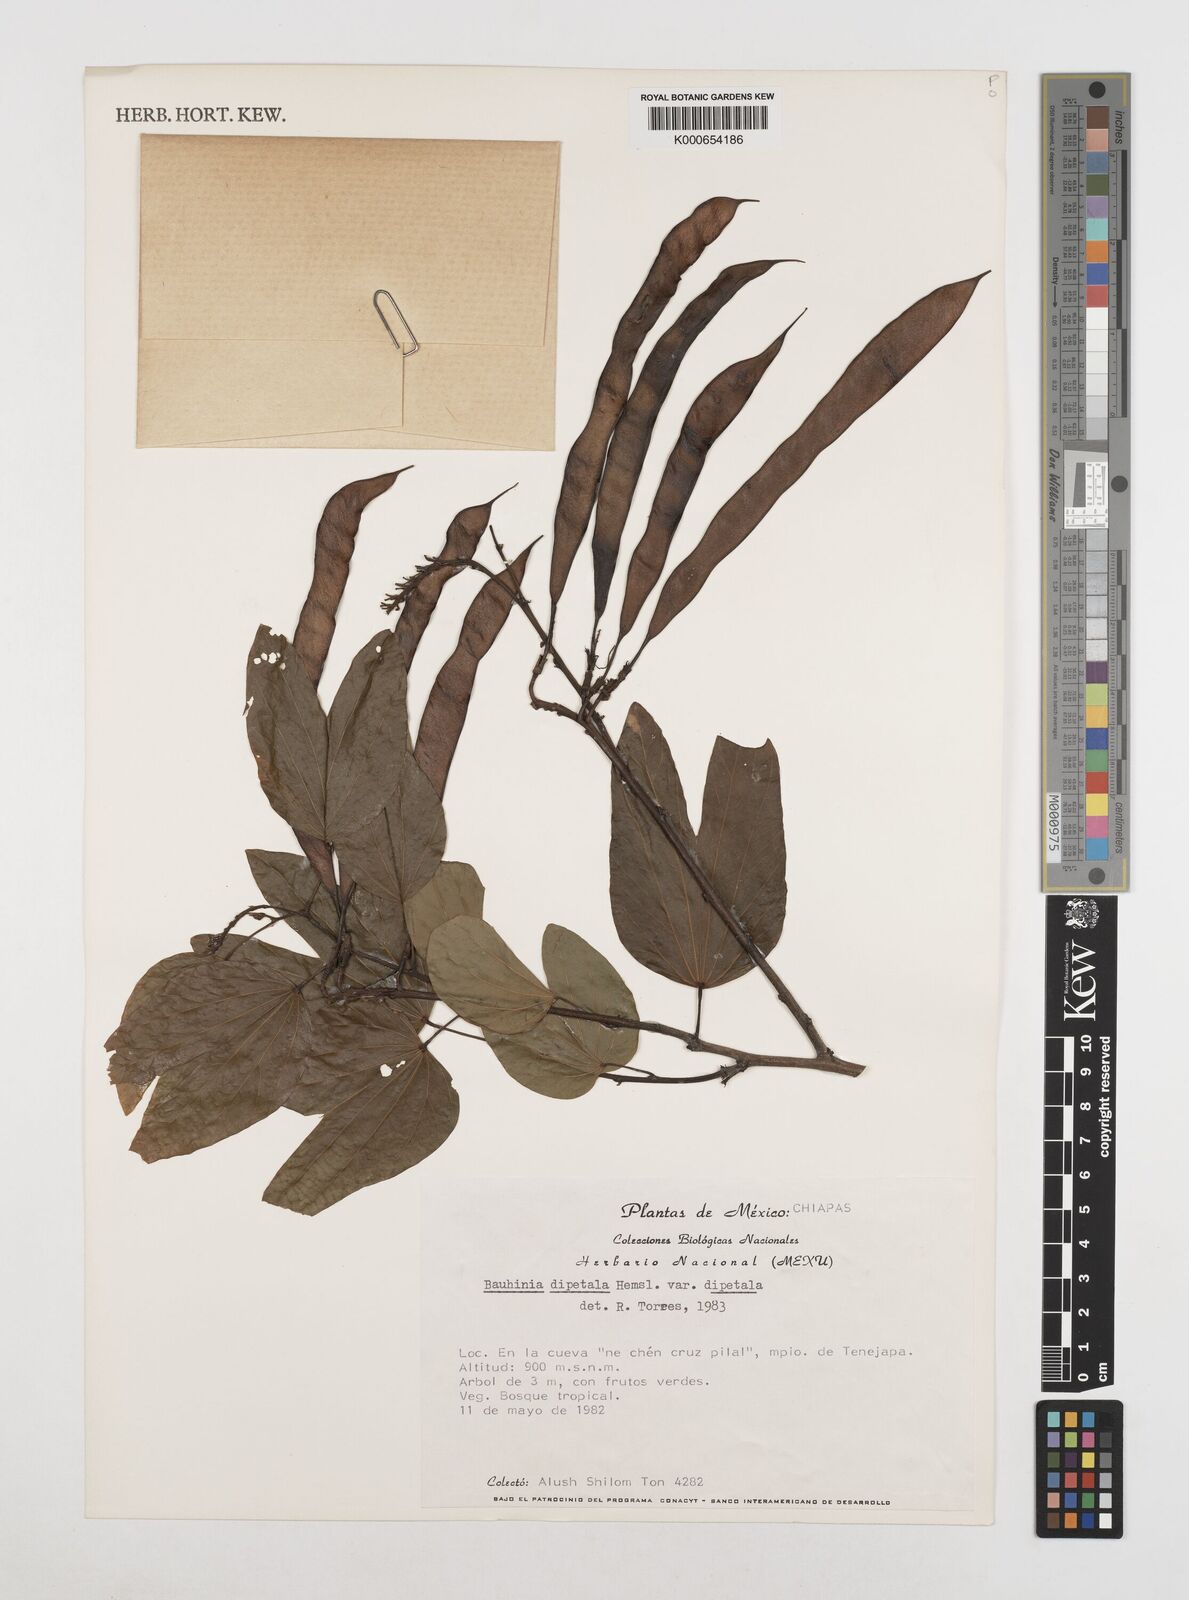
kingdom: Plantae
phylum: Tracheophyta
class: Magnoliopsida
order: Fabales
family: Fabaceae
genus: Bauhinia
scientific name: Bauhinia dipetala
